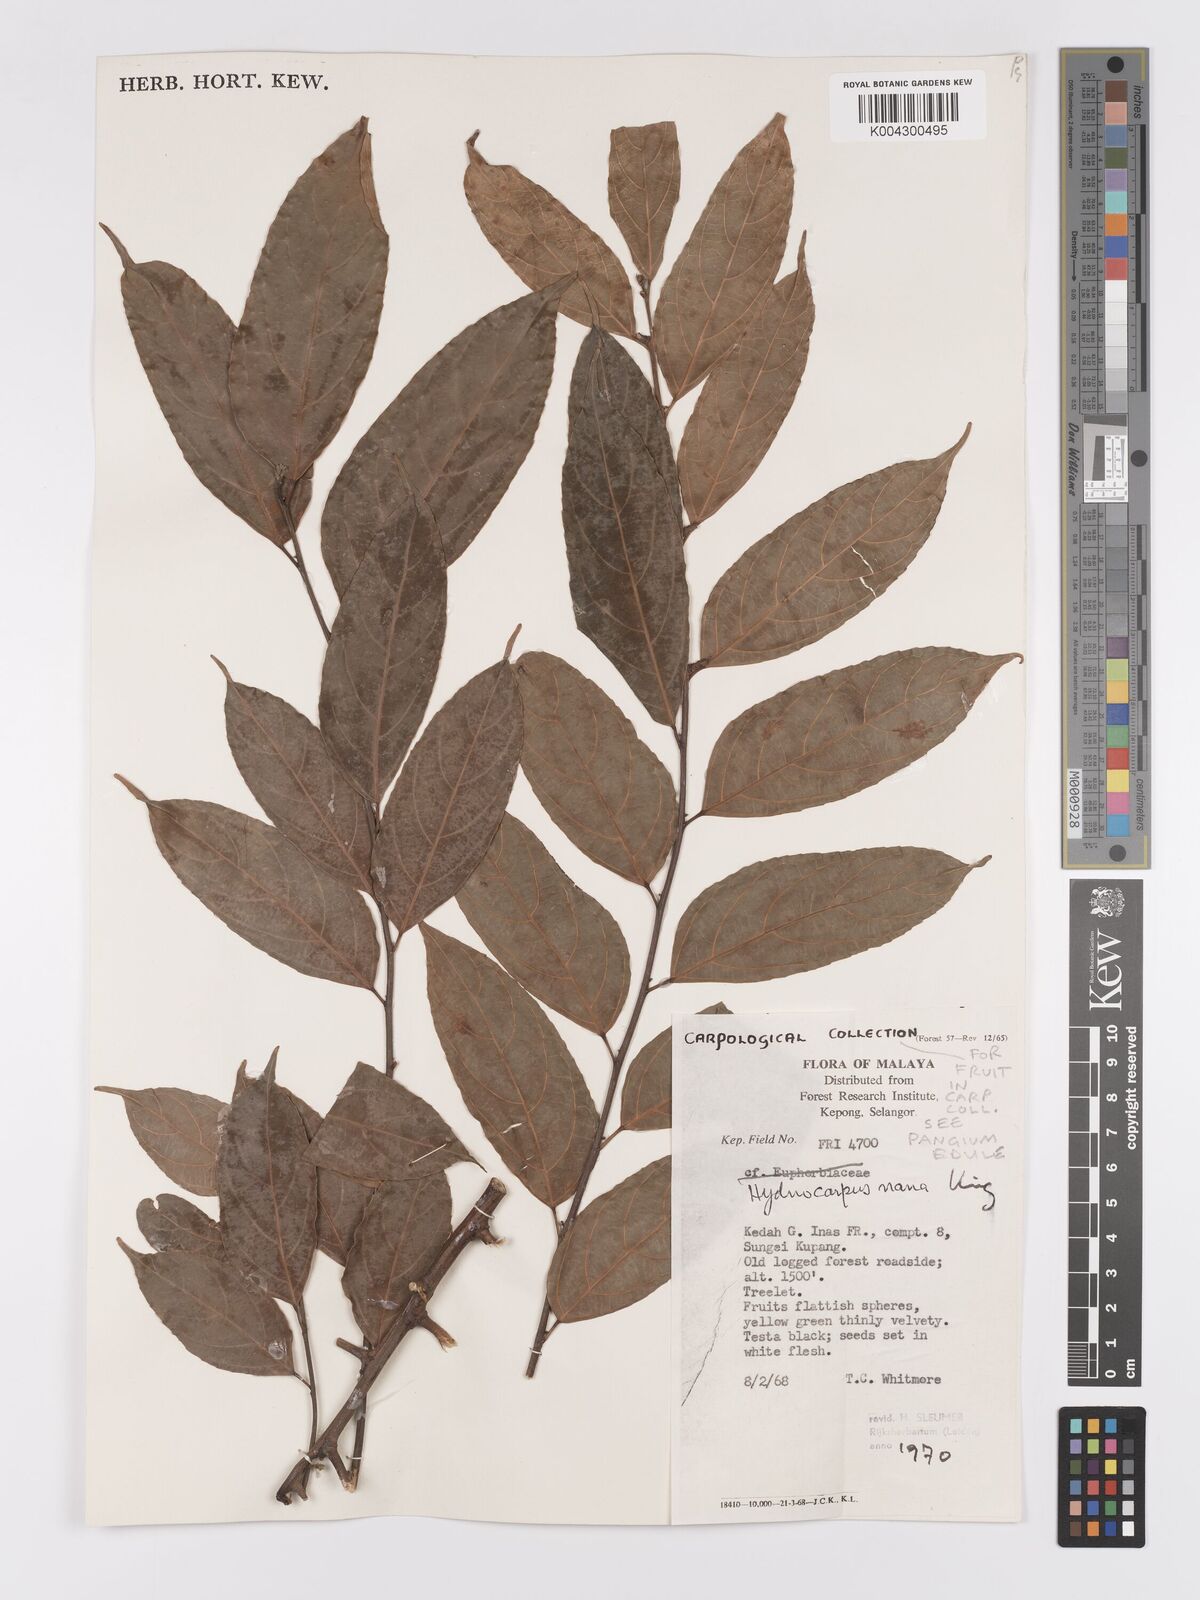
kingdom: Plantae
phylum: Tracheophyta
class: Magnoliopsida
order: Malpighiales
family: Achariaceae
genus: Hydnocarpus
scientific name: Hydnocarpus nanus
